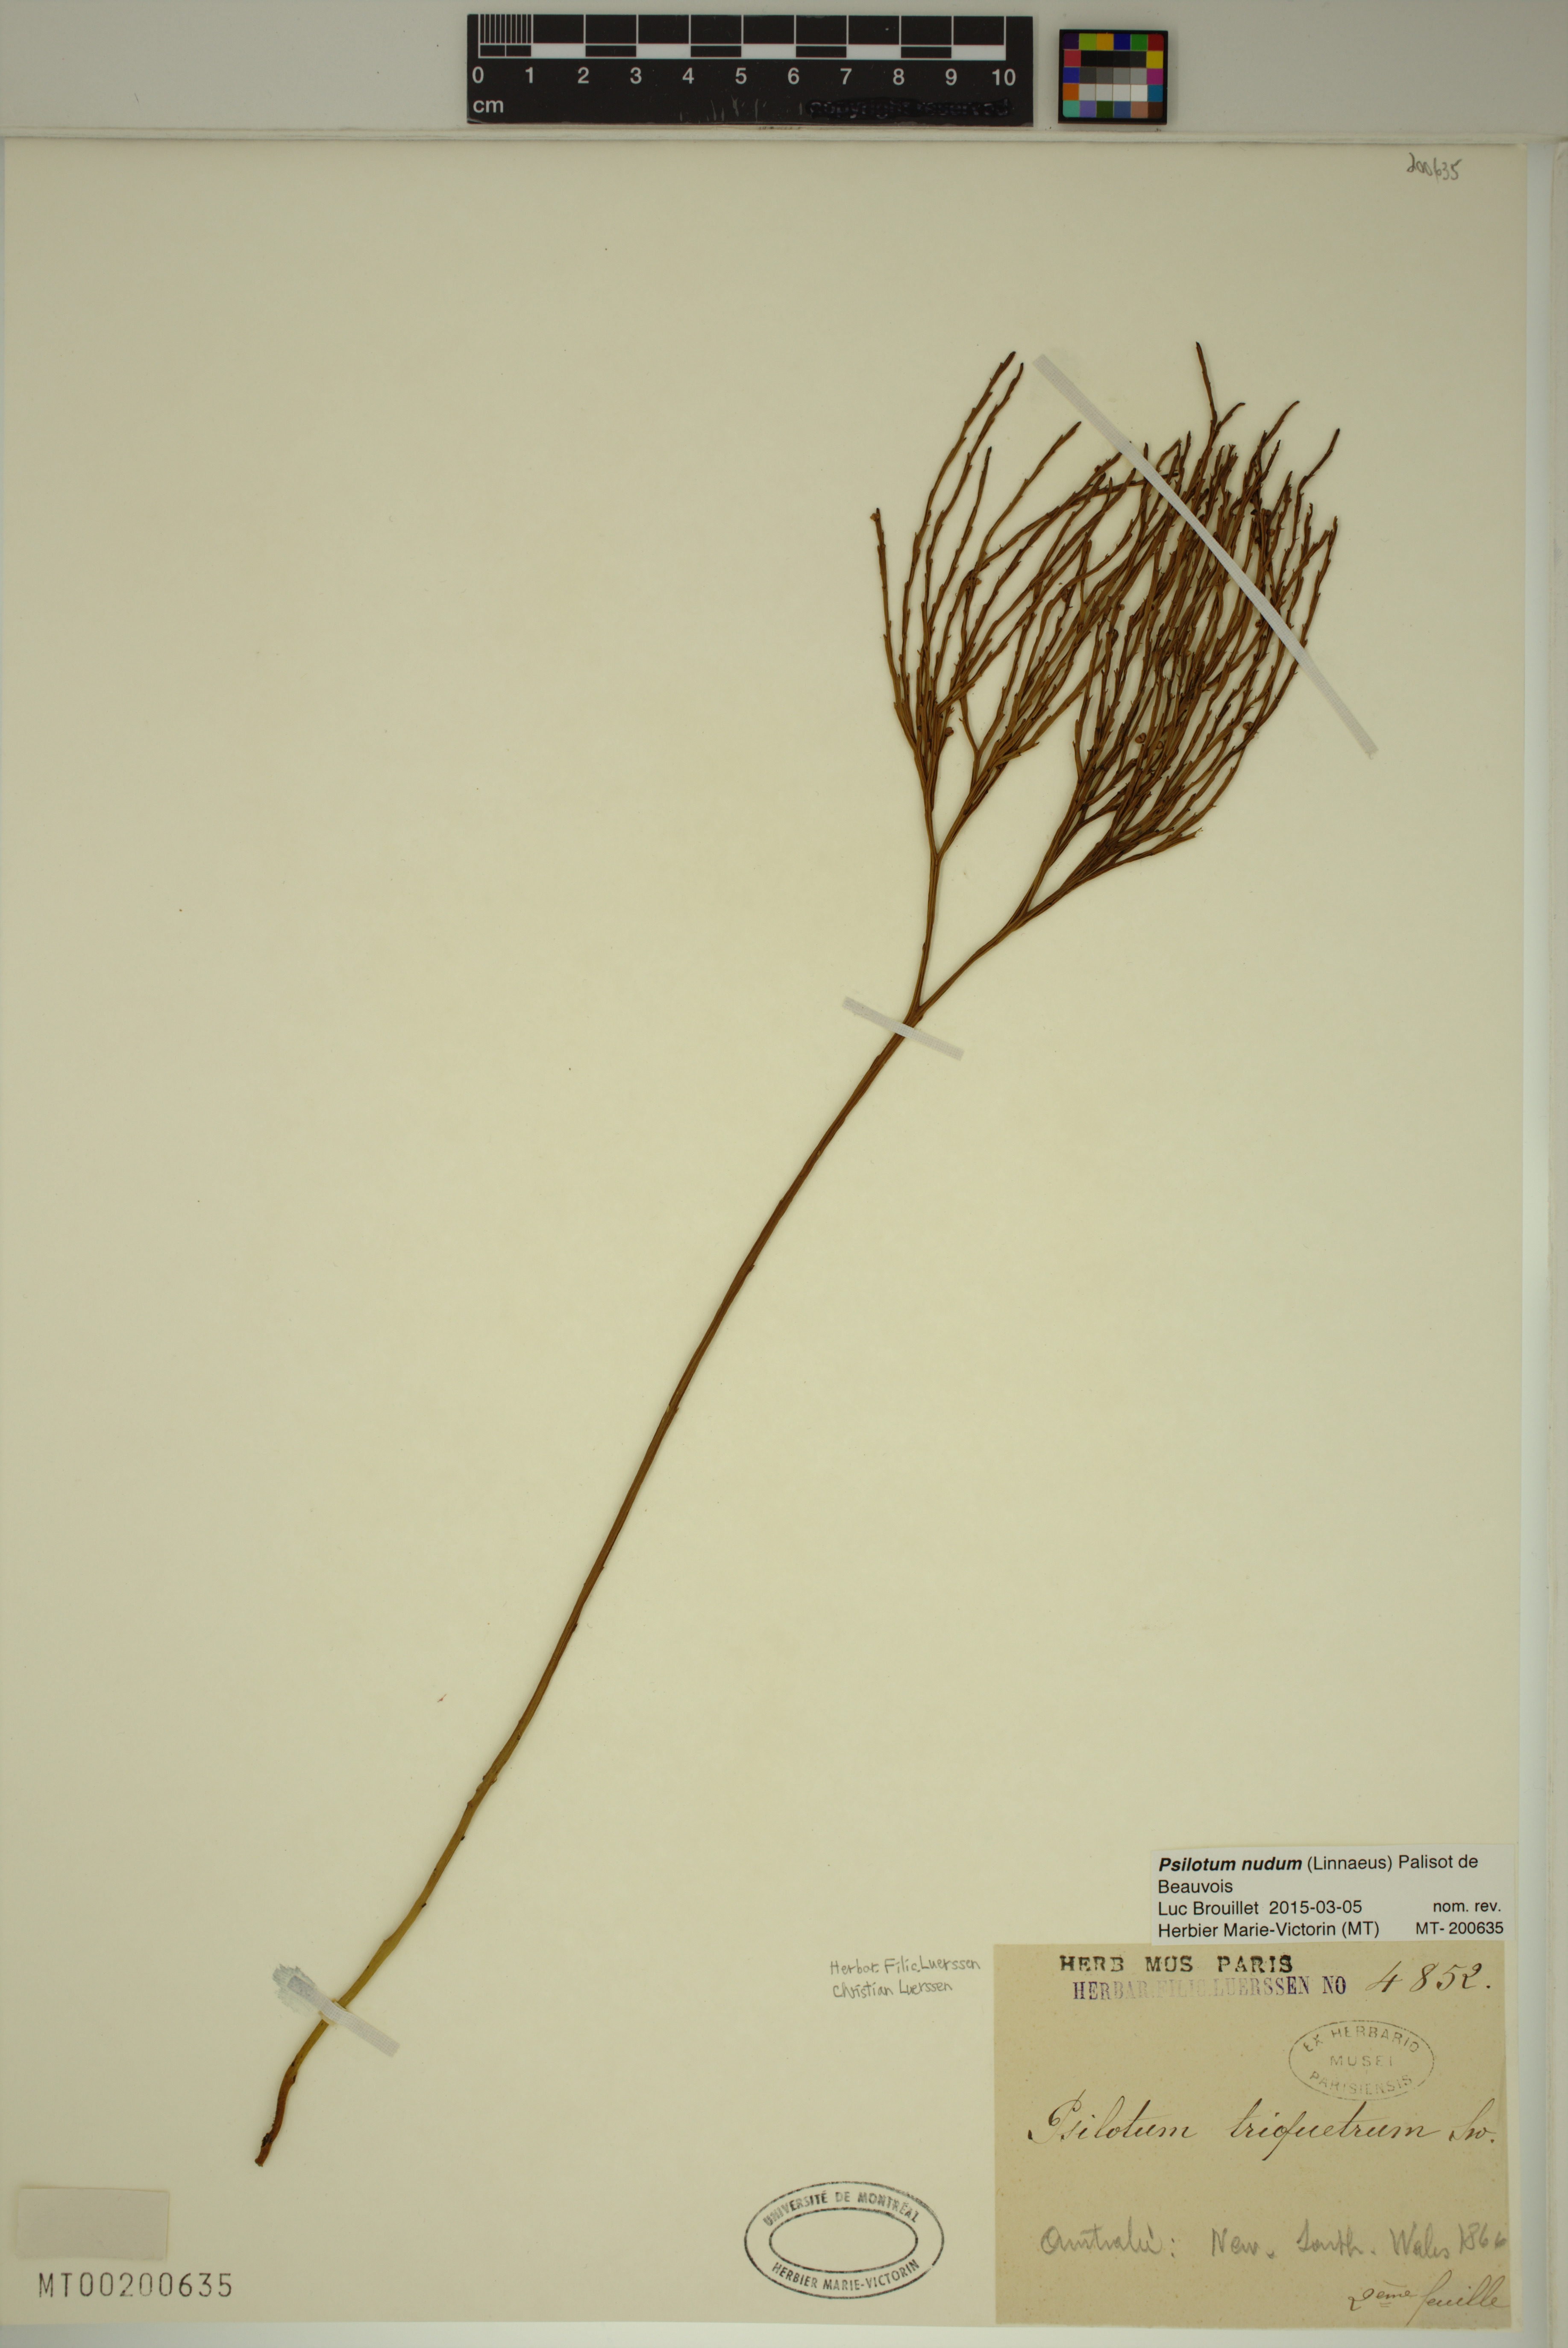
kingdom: Plantae
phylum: Tracheophyta
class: Polypodiopsida
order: Psilotales
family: Psilotaceae
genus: Psilotum
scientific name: Psilotum nudum
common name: Skeleton fork fern
